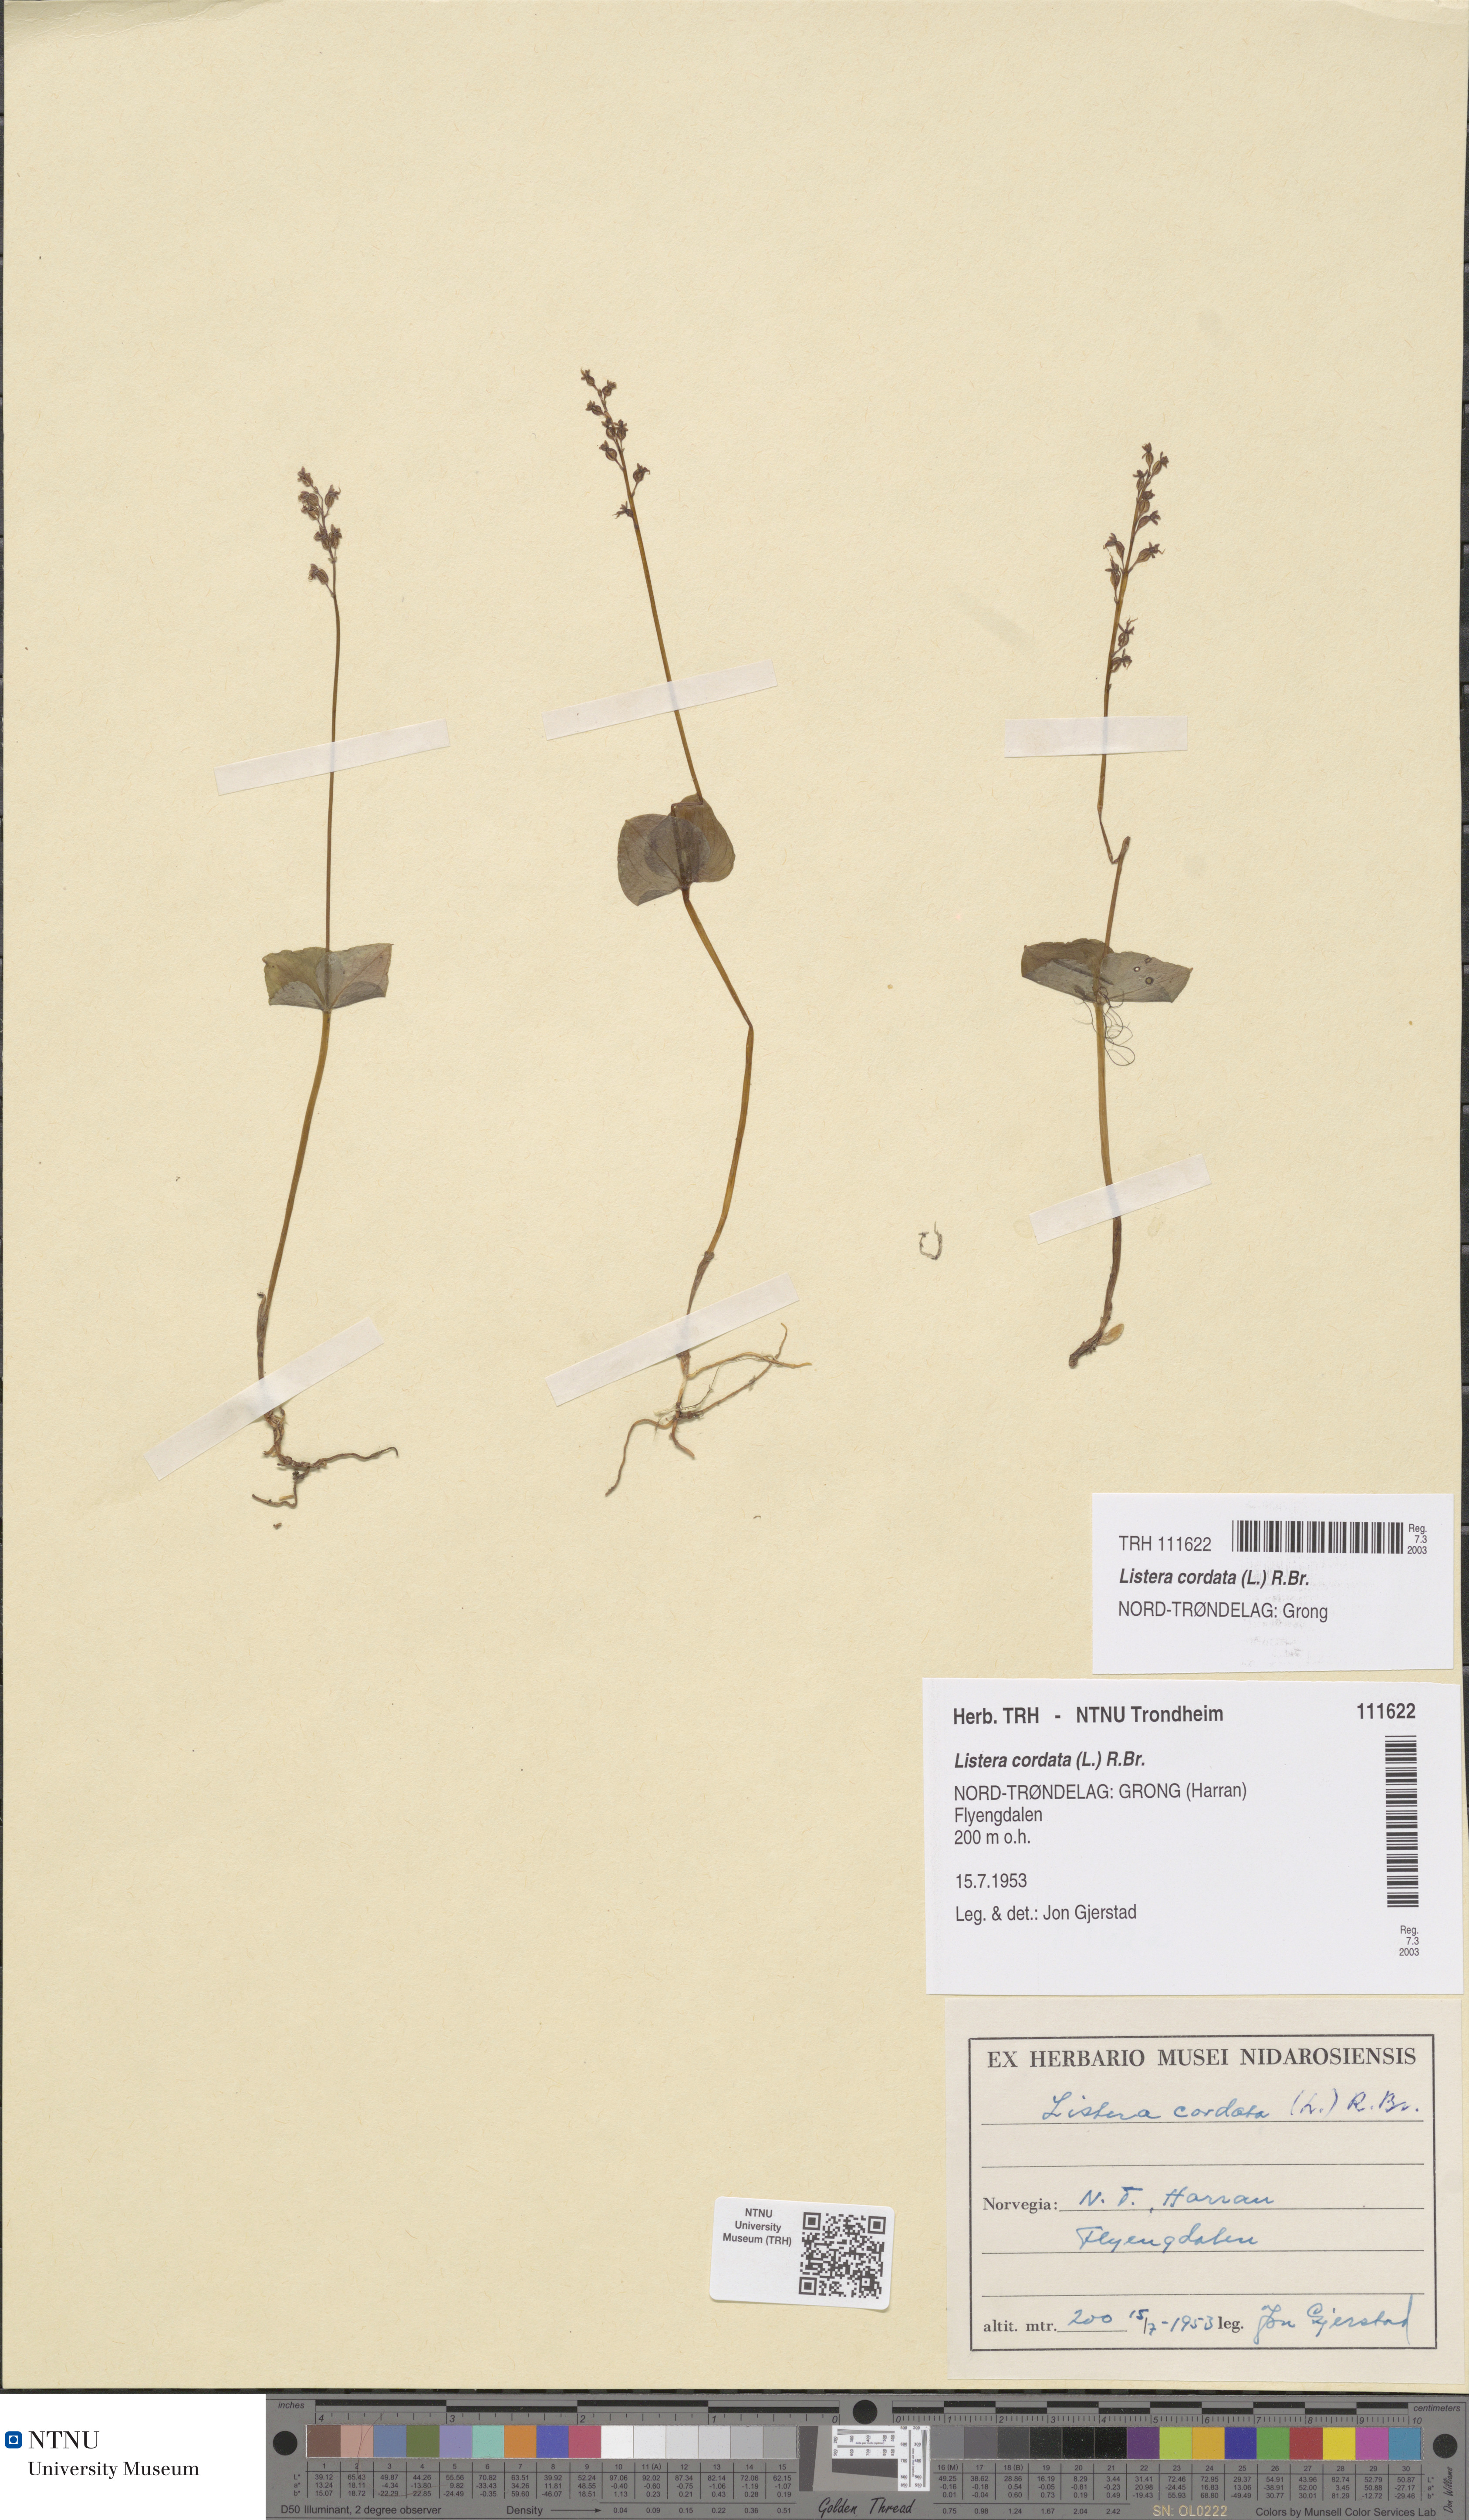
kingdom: Plantae
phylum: Tracheophyta
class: Liliopsida
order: Asparagales
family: Orchidaceae
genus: Neottia
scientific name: Neottia cordata
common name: Lesser twayblade
